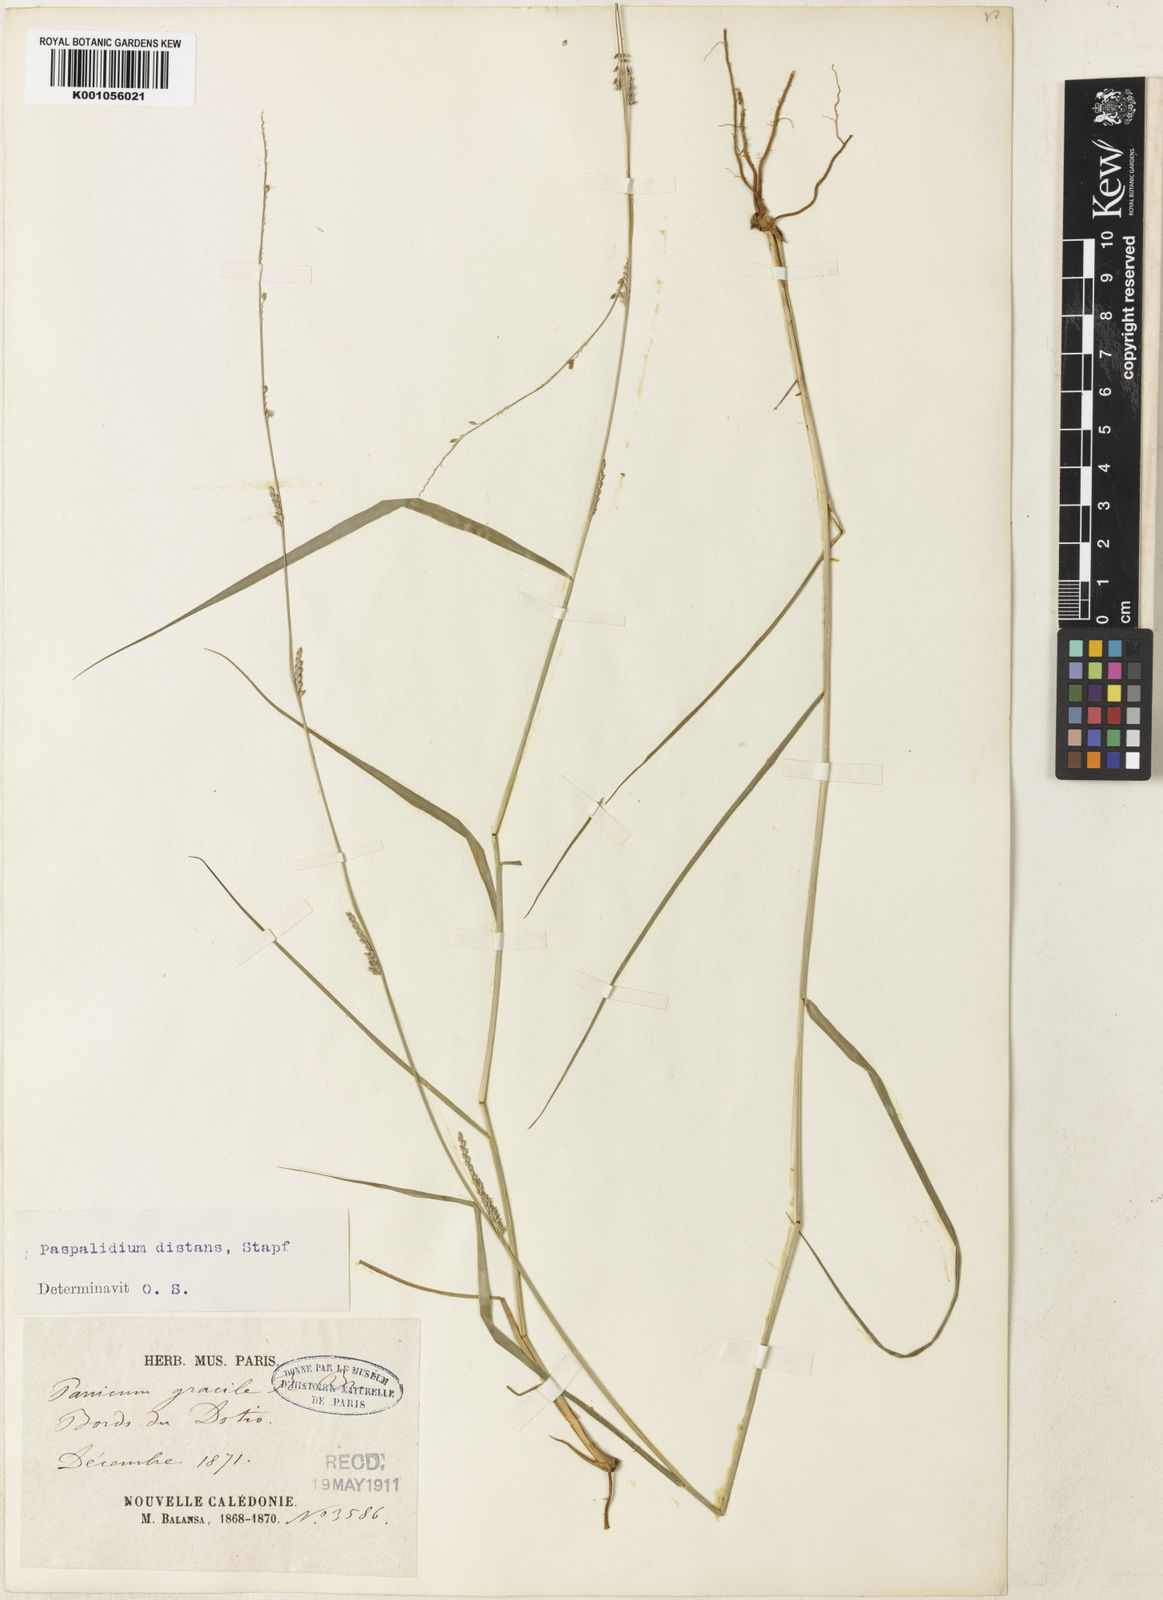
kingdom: Plantae
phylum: Tracheophyta
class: Liliopsida
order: Poales
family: Poaceae
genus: Setaria
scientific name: Setaria elegantula
